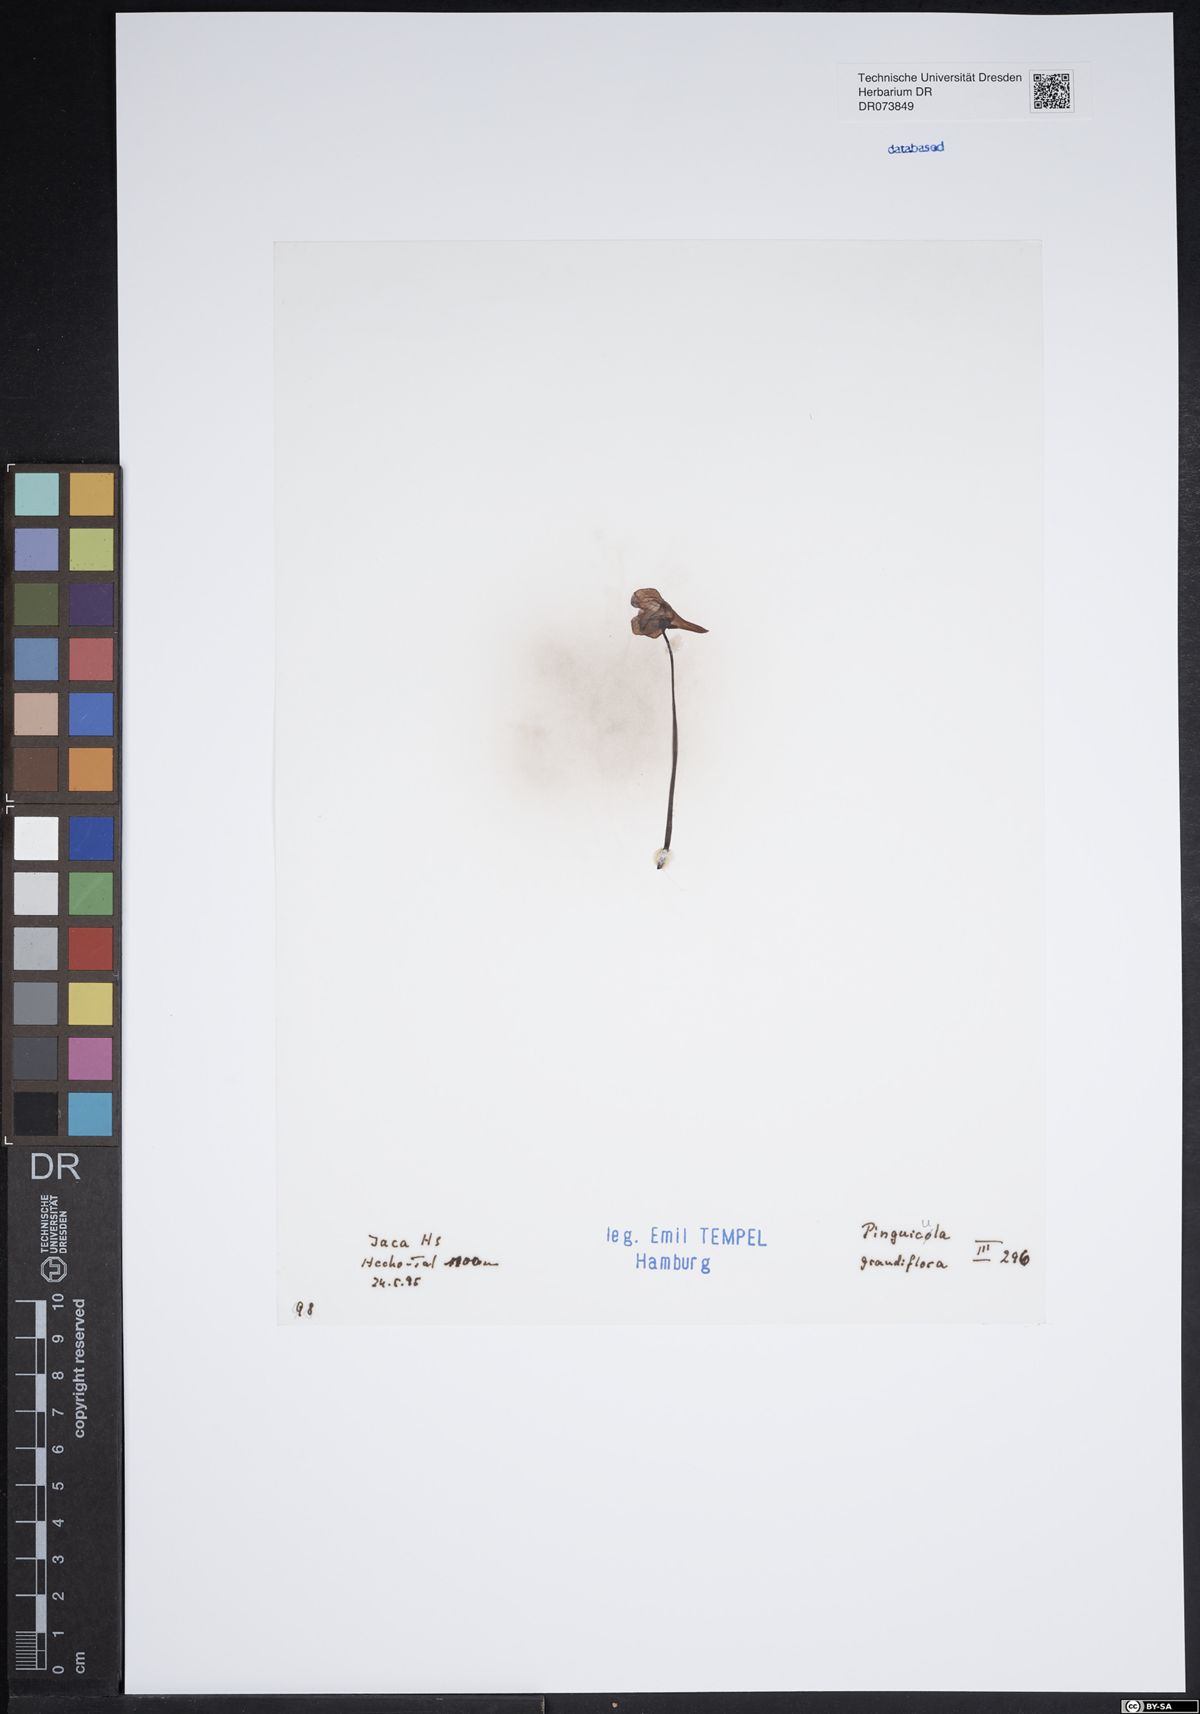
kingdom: Plantae
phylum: Tracheophyta
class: Magnoliopsida
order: Lamiales
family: Lentibulariaceae
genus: Pinguicula
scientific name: Pinguicula grandiflora
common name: Large-flowered butterwort
